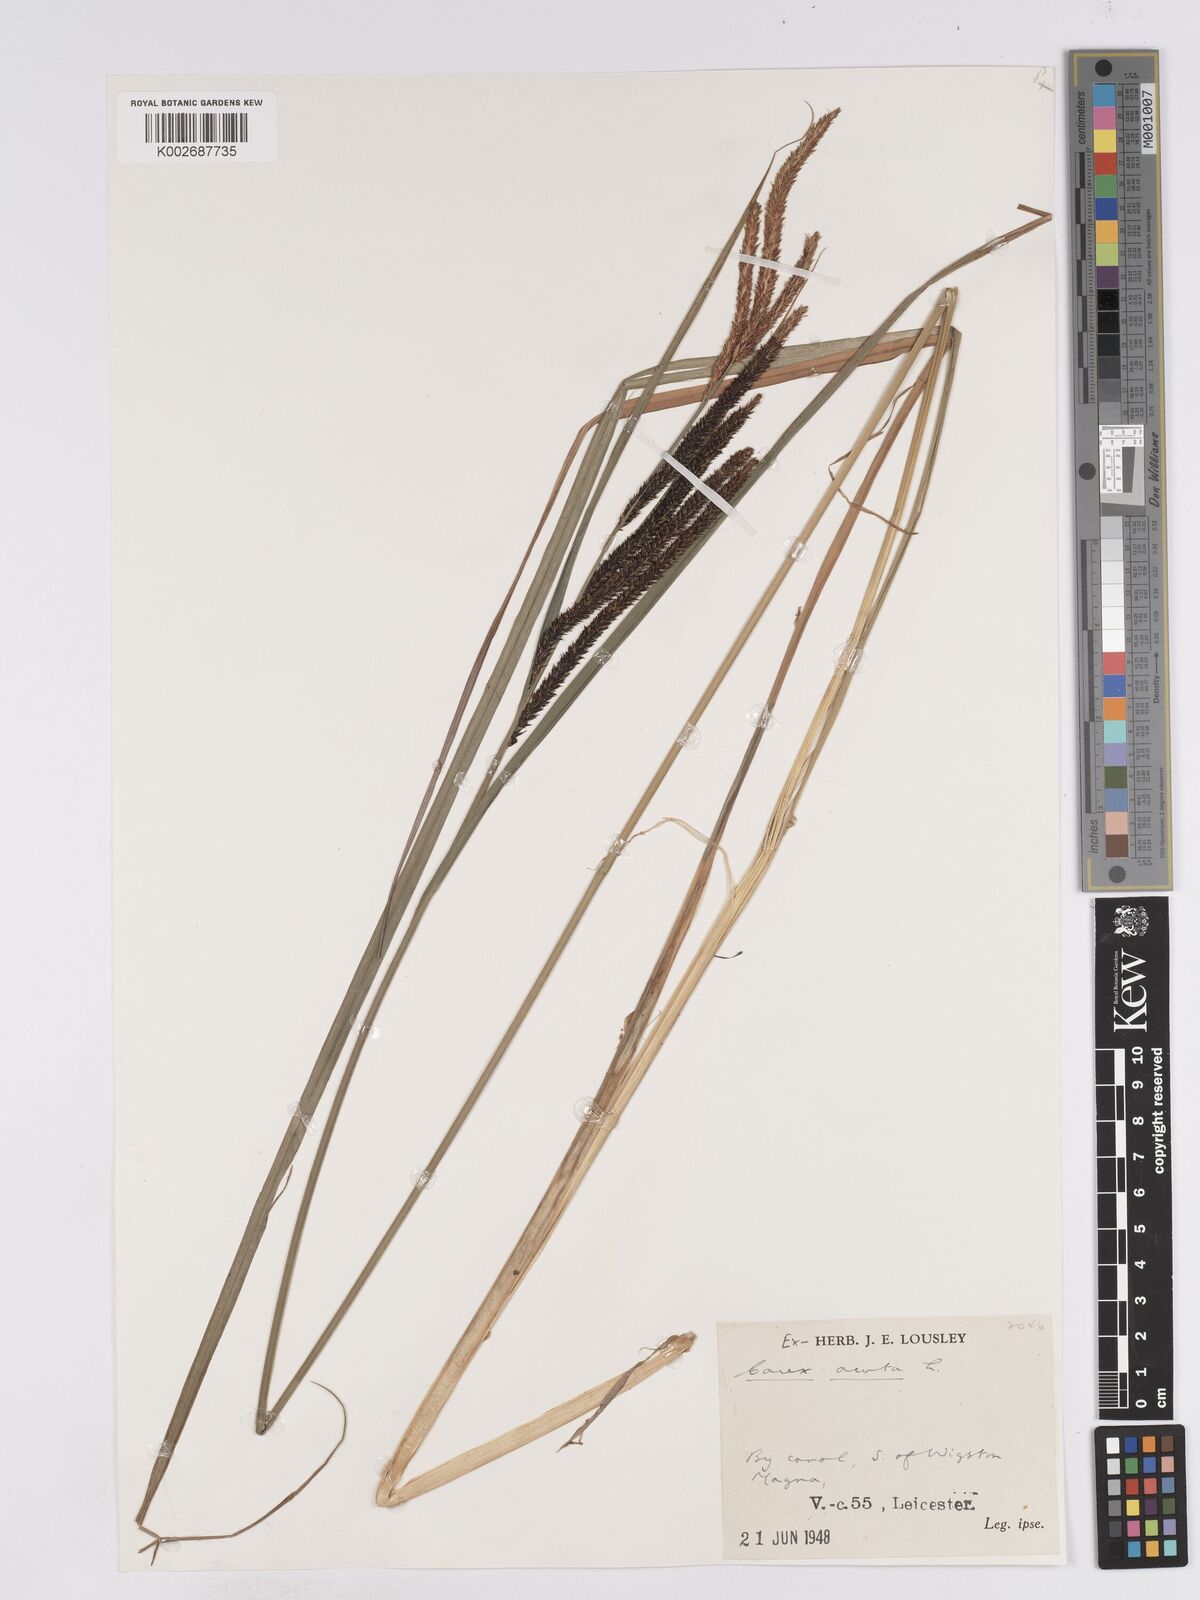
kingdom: Plantae
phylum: Tracheophyta
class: Liliopsida
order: Poales
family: Cyperaceae
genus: Carex
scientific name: Carex acuta
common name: Slender tufted-sedge
